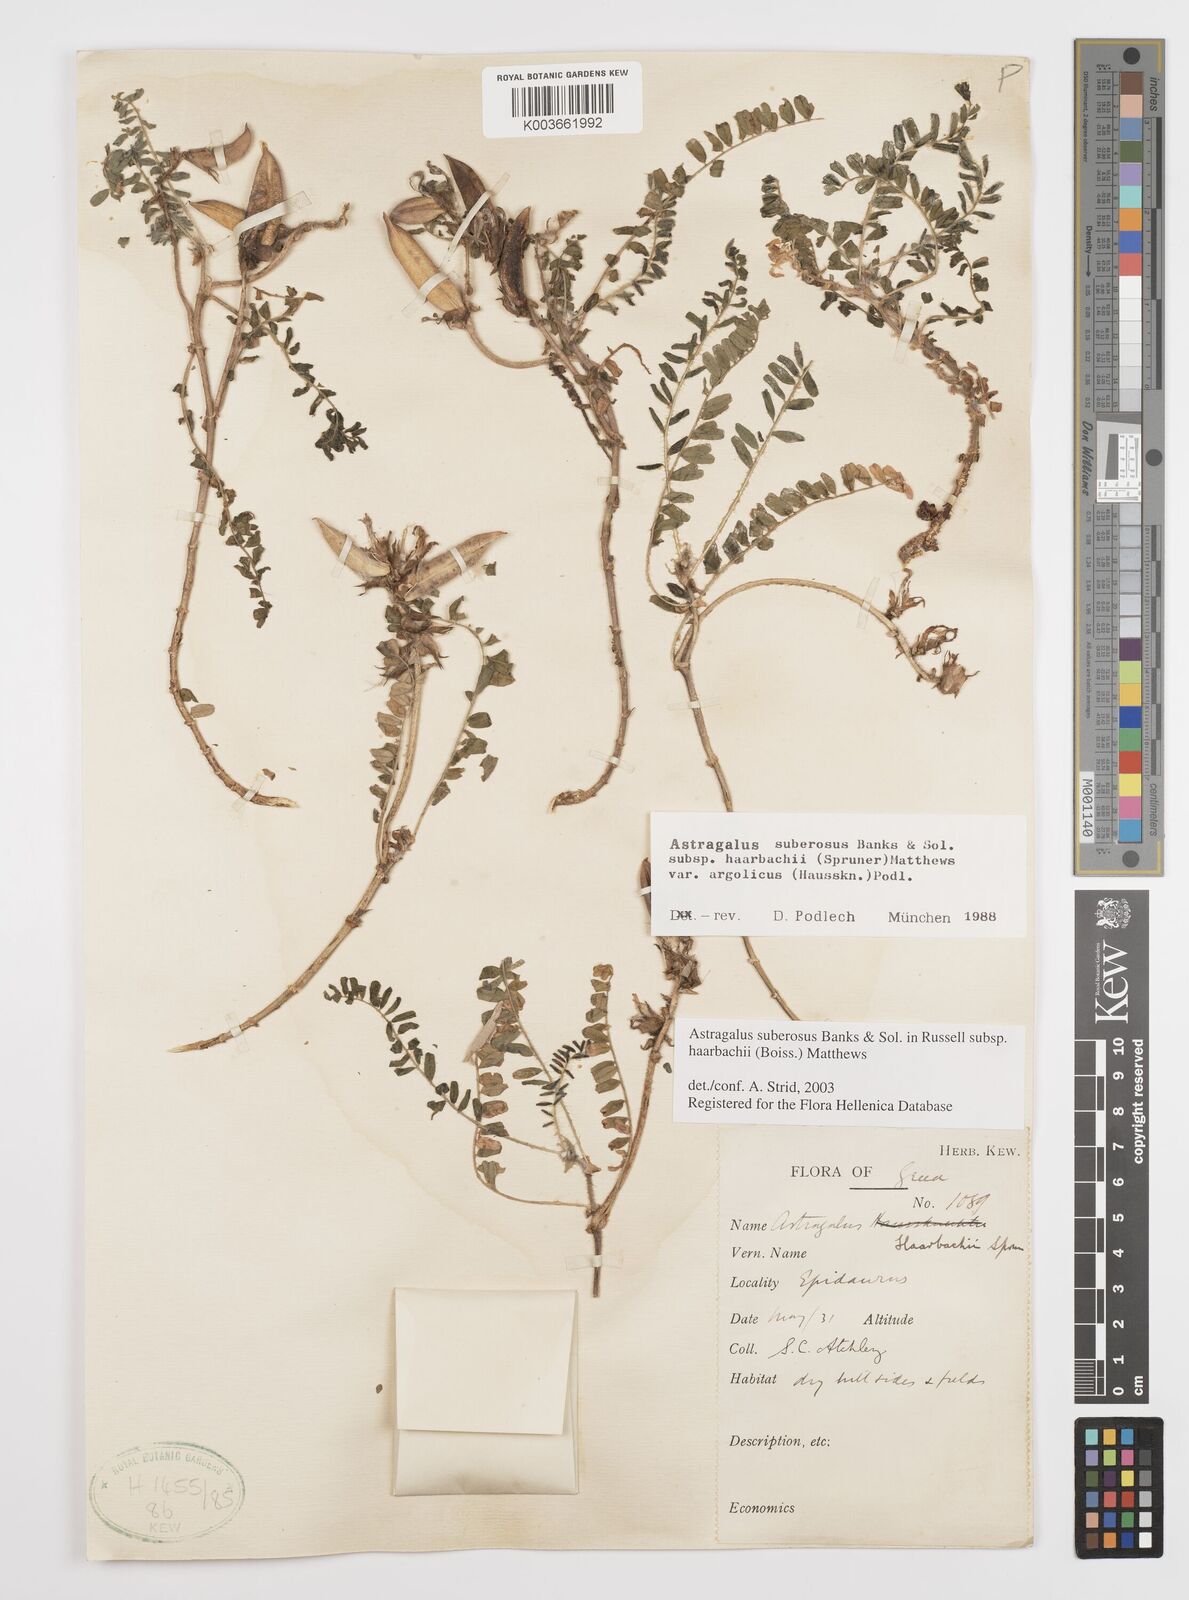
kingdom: Plantae
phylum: Tracheophyta
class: Magnoliopsida
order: Fabales
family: Fabaceae
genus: Astragalus
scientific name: Astragalus
